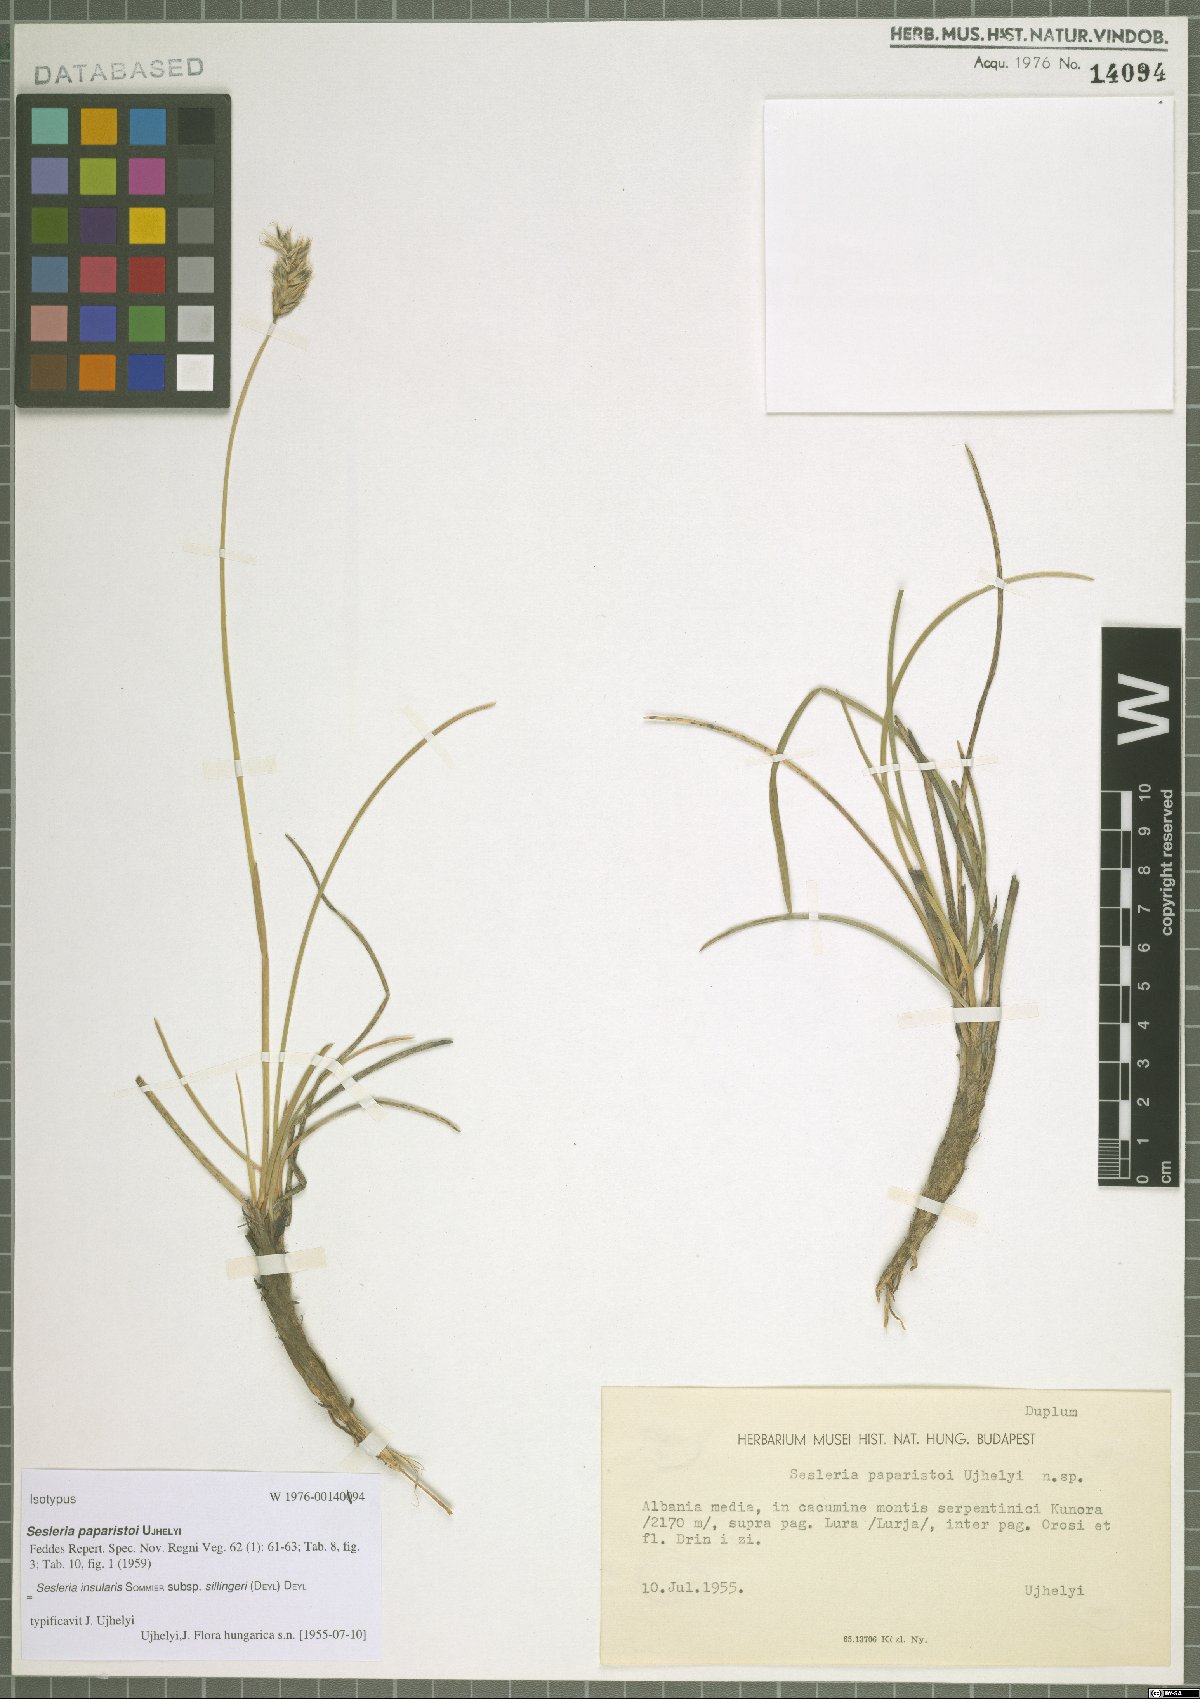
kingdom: Plantae
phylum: Tracheophyta
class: Liliopsida
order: Poales
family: Poaceae
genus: Sesleria
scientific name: Sesleria robusta
